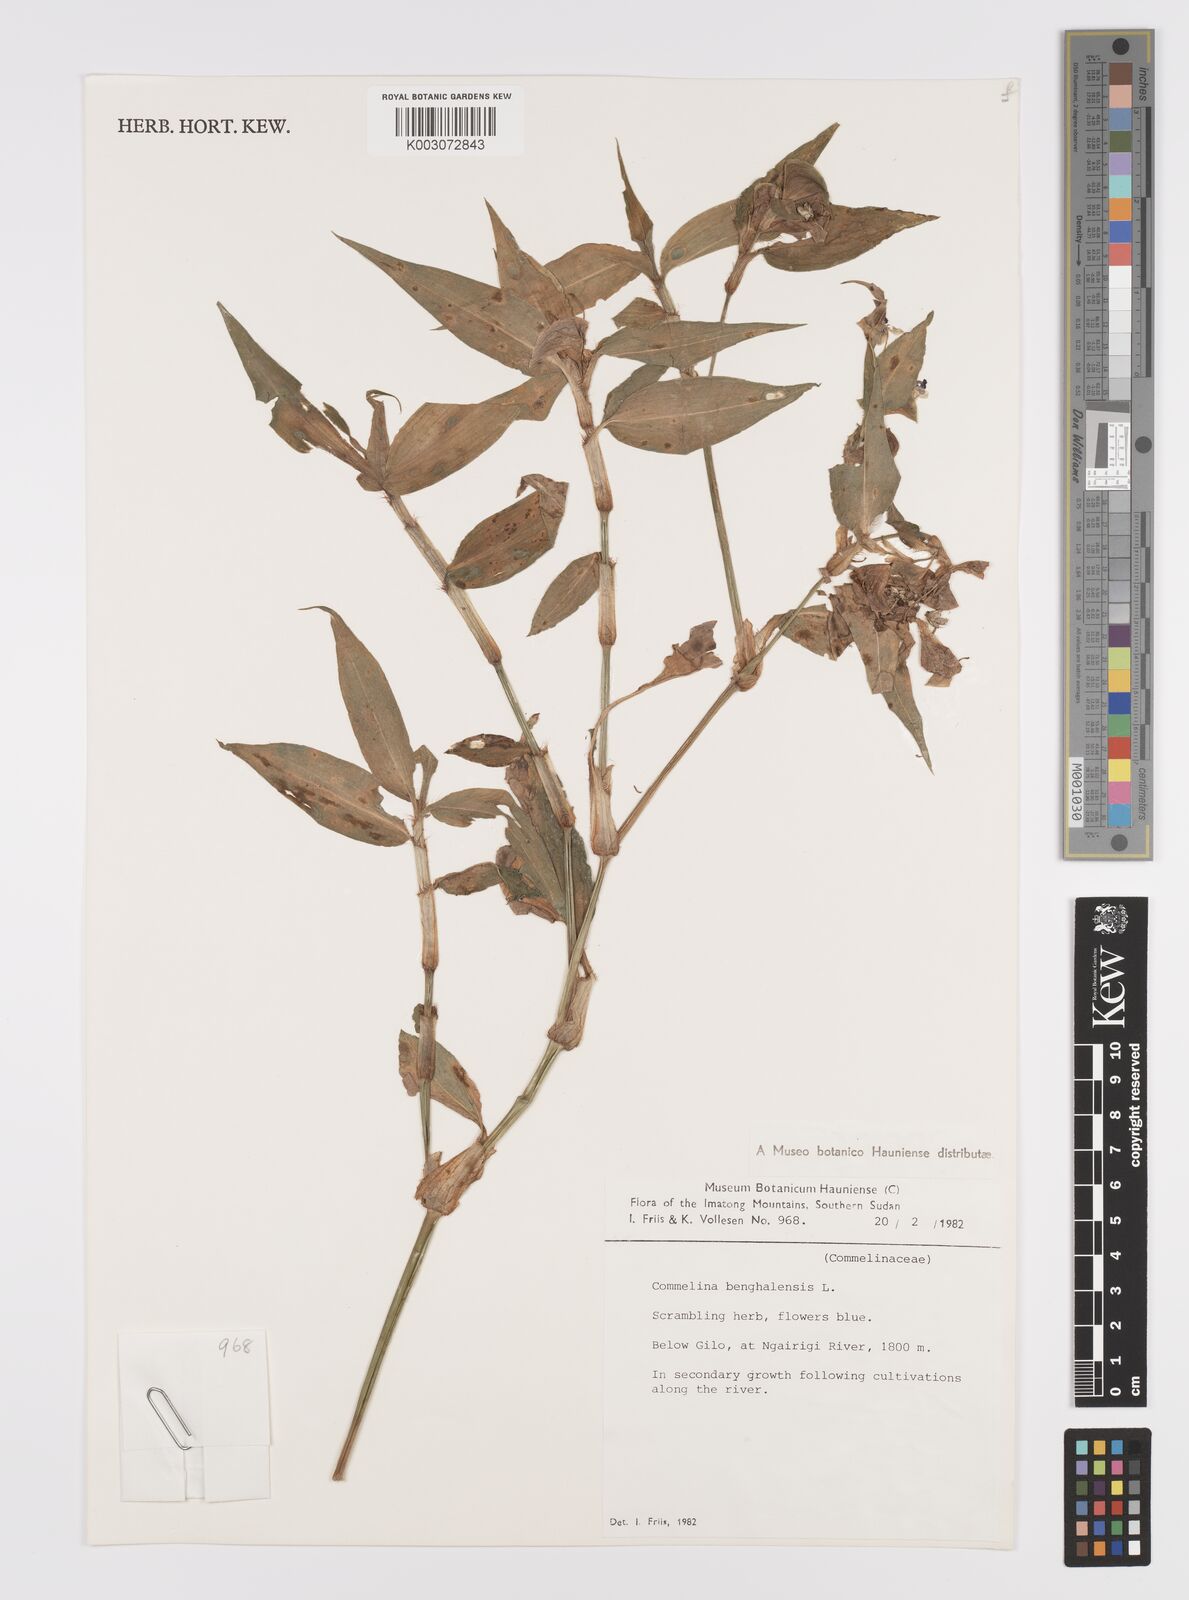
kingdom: Plantae
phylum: Tracheophyta
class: Liliopsida
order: Commelinales
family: Commelinaceae
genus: Commelina
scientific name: Commelina benghalensis
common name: Jio
